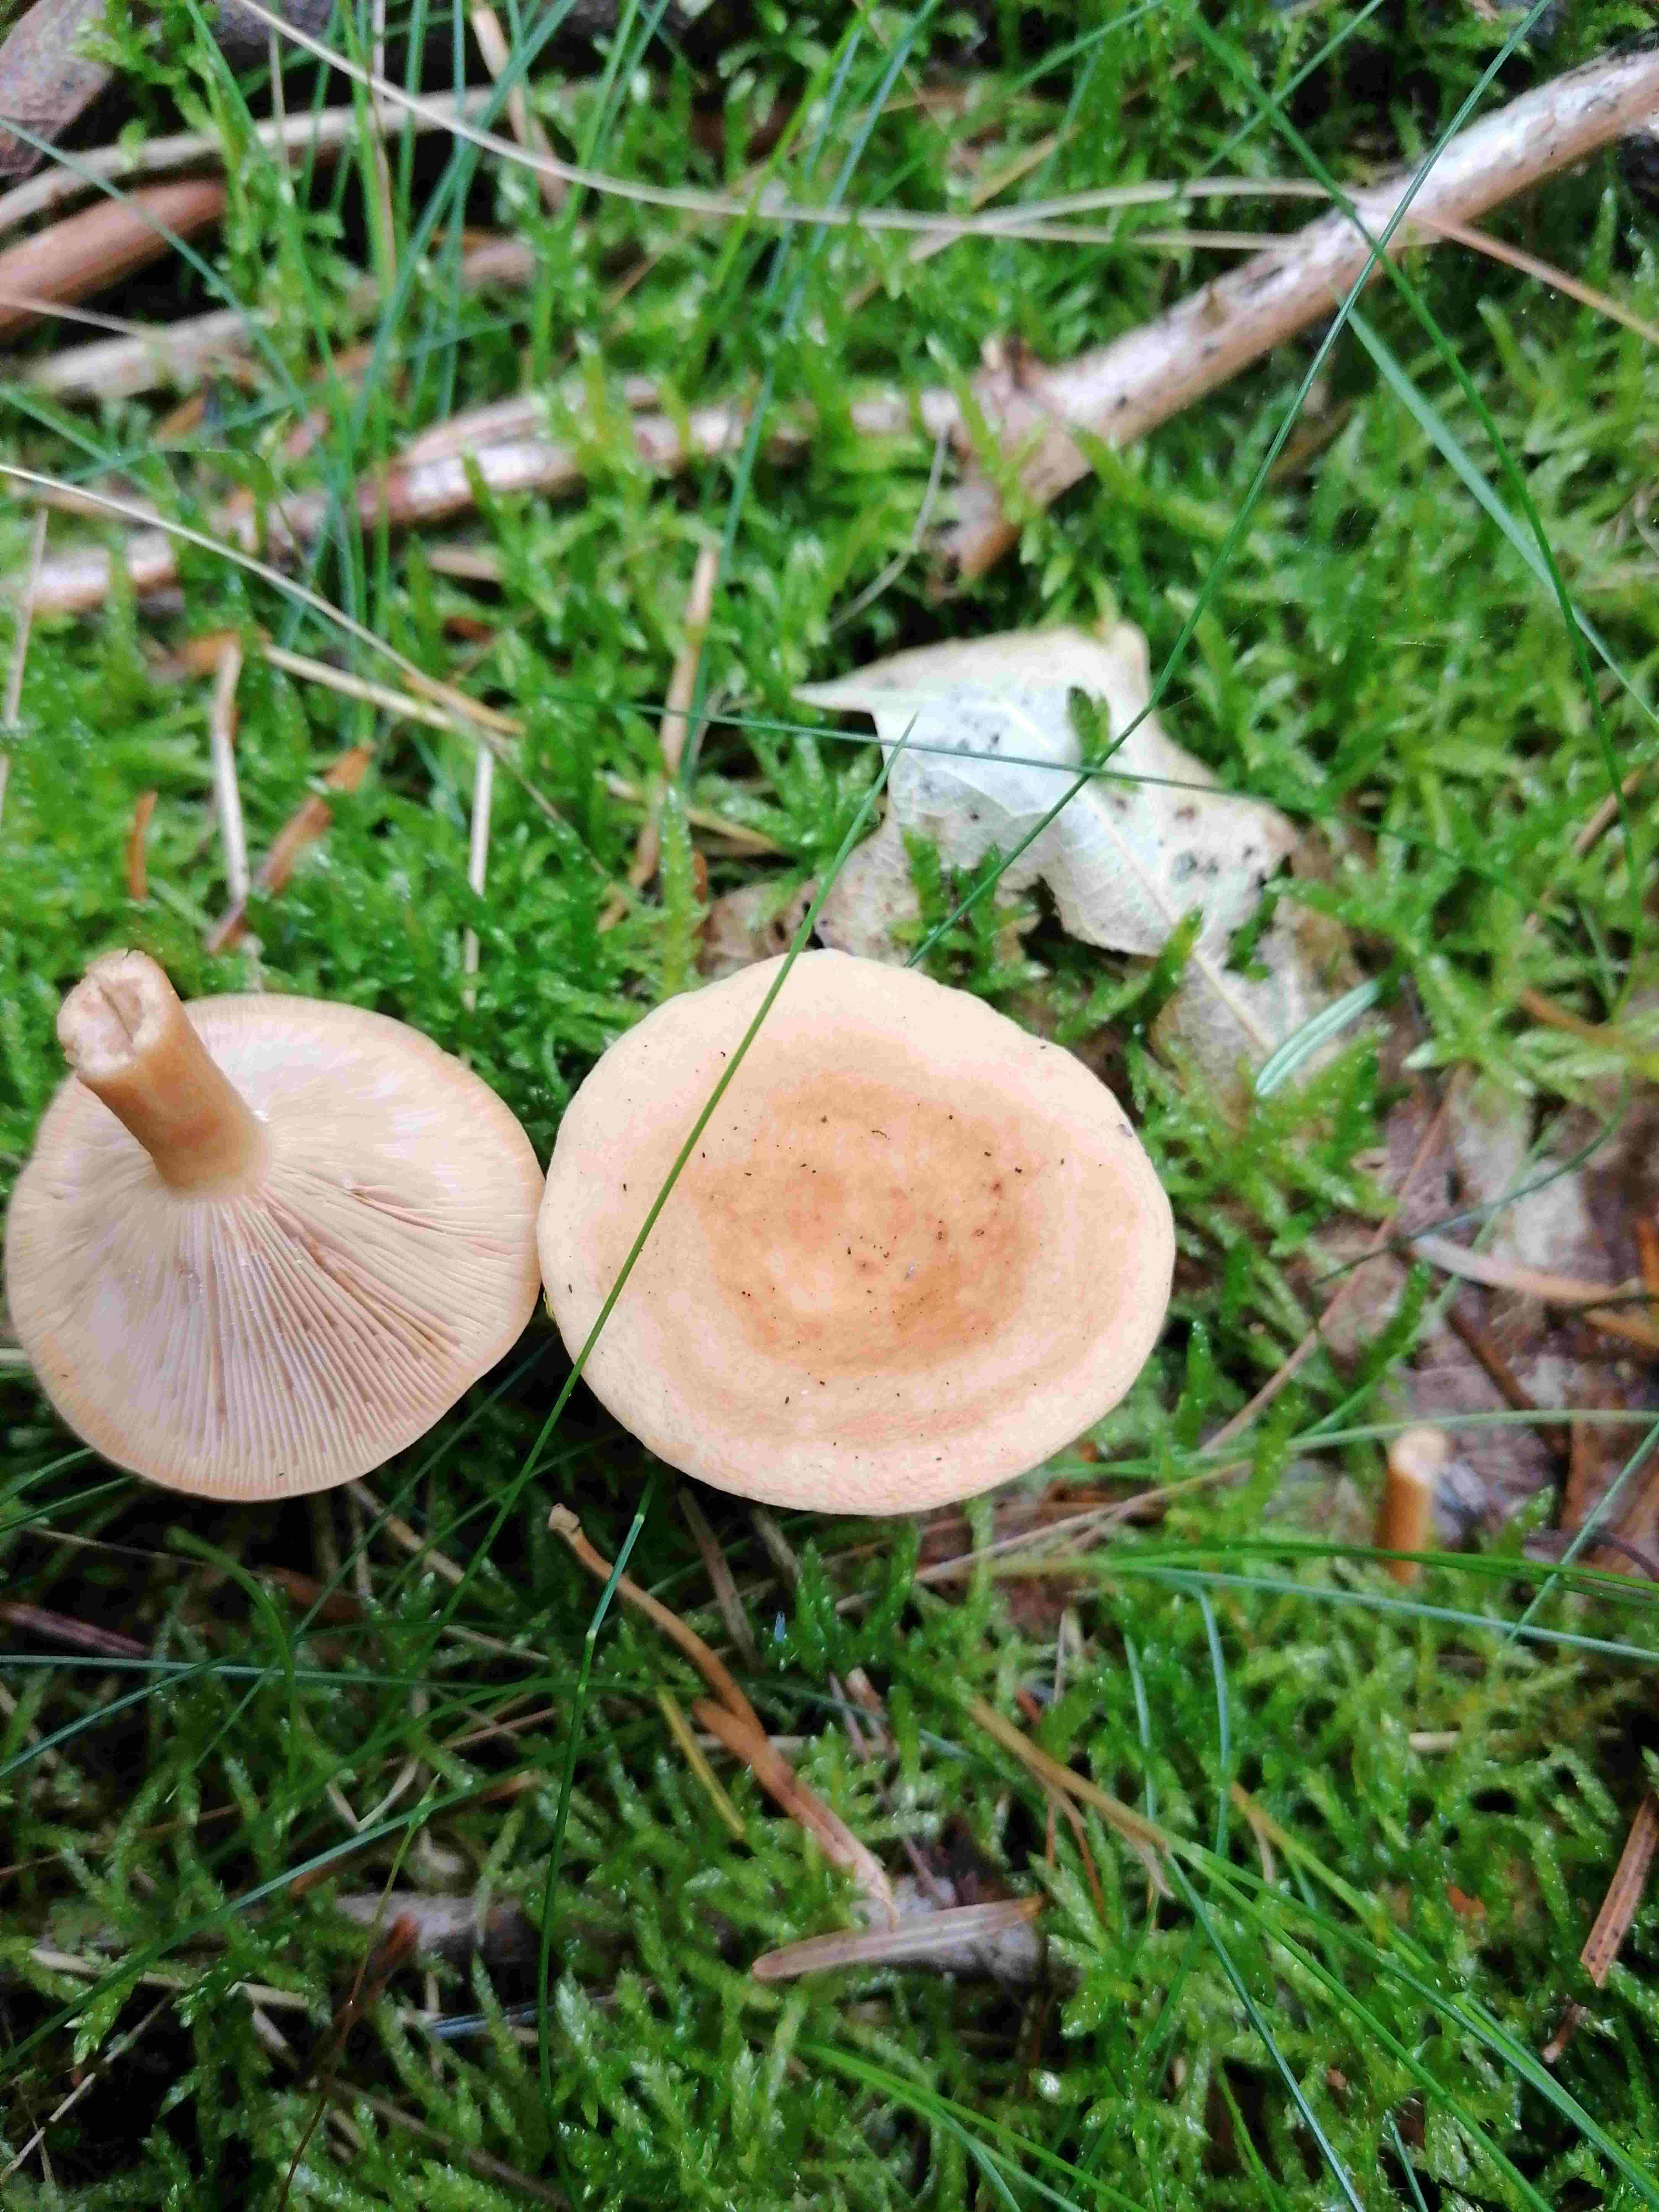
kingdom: Fungi
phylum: Basidiomycota
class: Agaricomycetes
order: Russulales
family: Russulaceae
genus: Lactarius
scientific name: Lactarius tabidus
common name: rynket mælkehat
